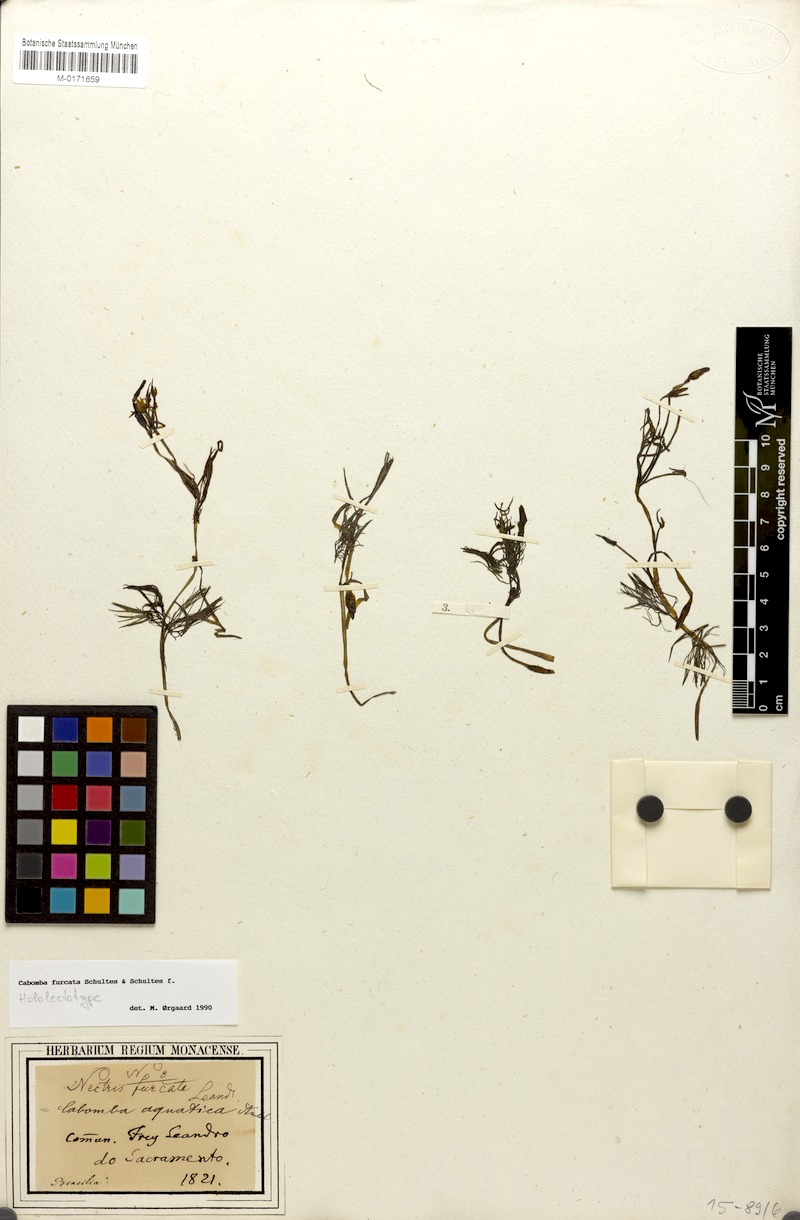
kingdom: Plantae
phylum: Tracheophyta
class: Magnoliopsida
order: Nymphaeales
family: Cabombaceae
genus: Cabomba
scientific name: Cabomba furcata
